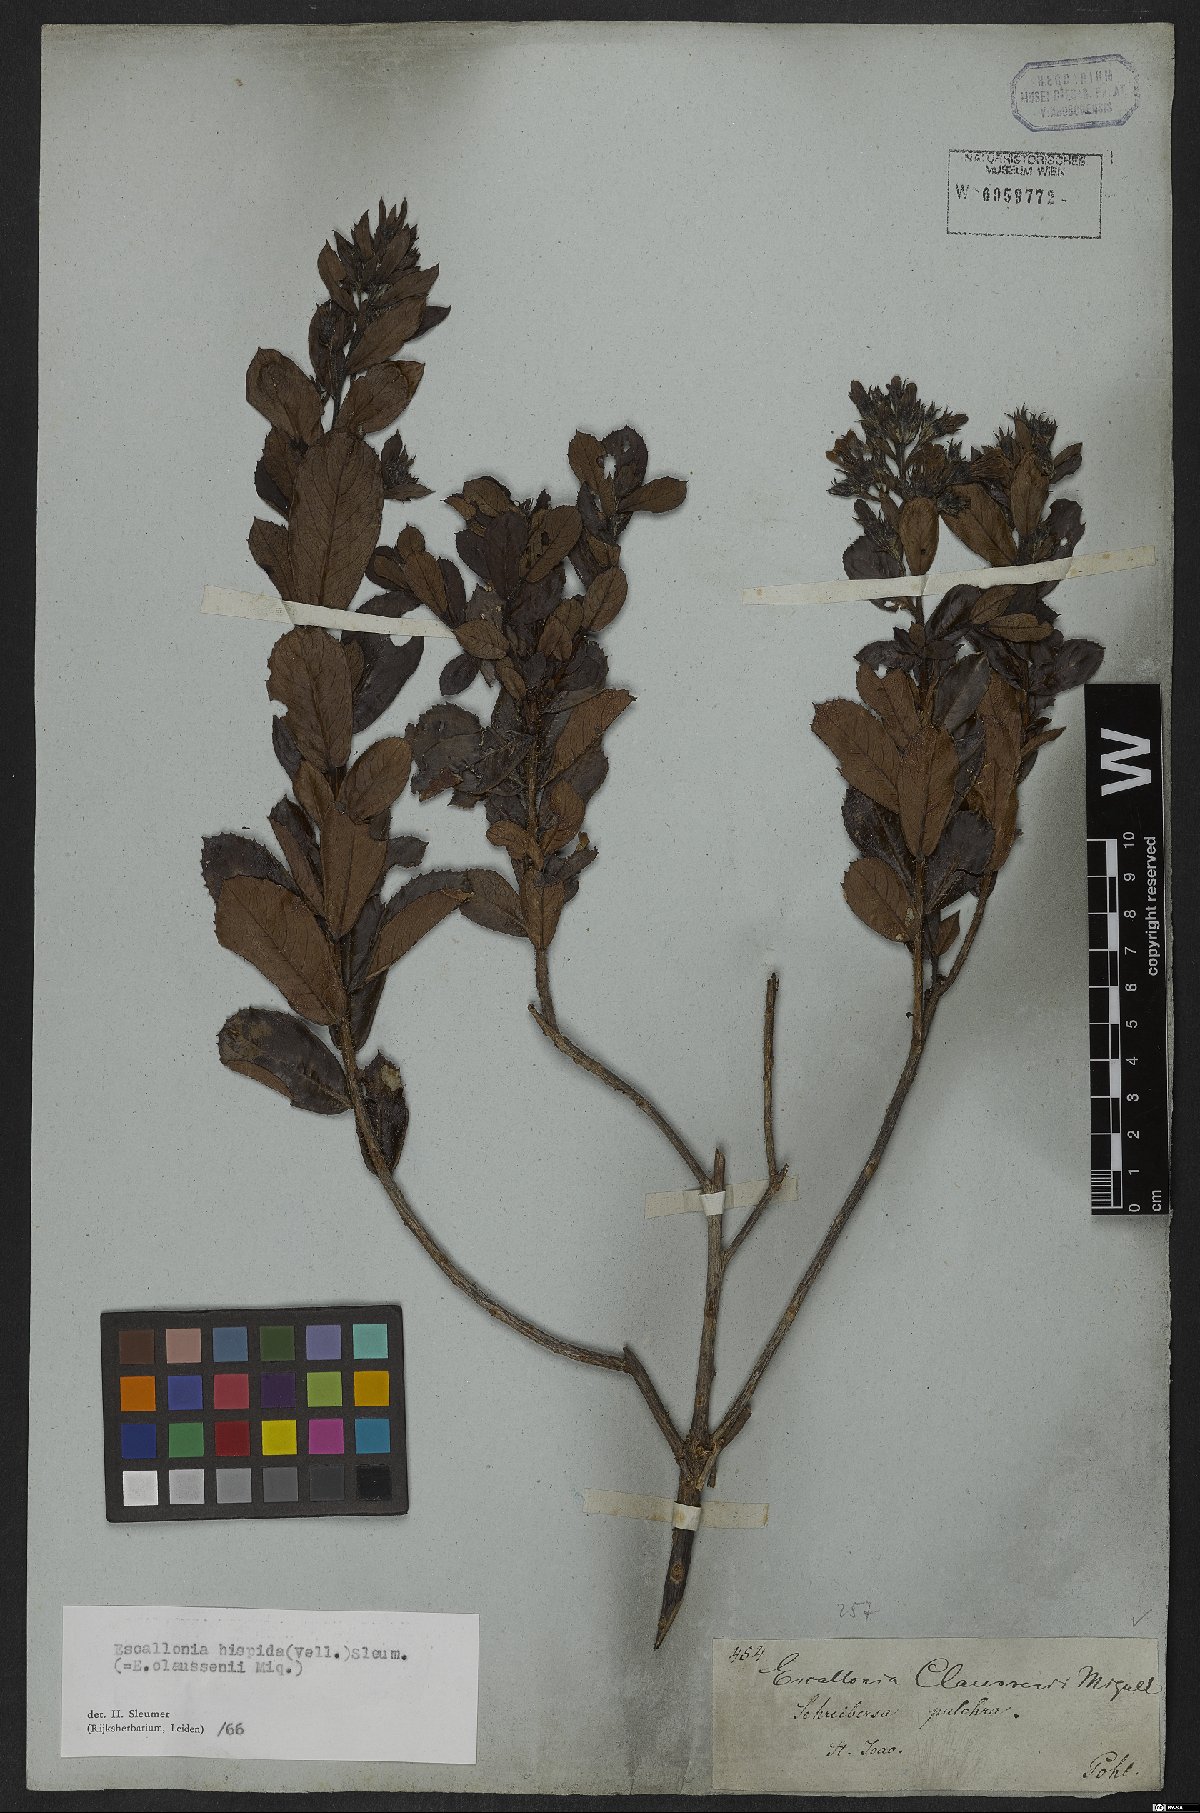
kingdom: Plantae
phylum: Tracheophyta
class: Magnoliopsida
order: Escalloniales
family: Escalloniaceae
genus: Escallonia
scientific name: Escallonia hispida
